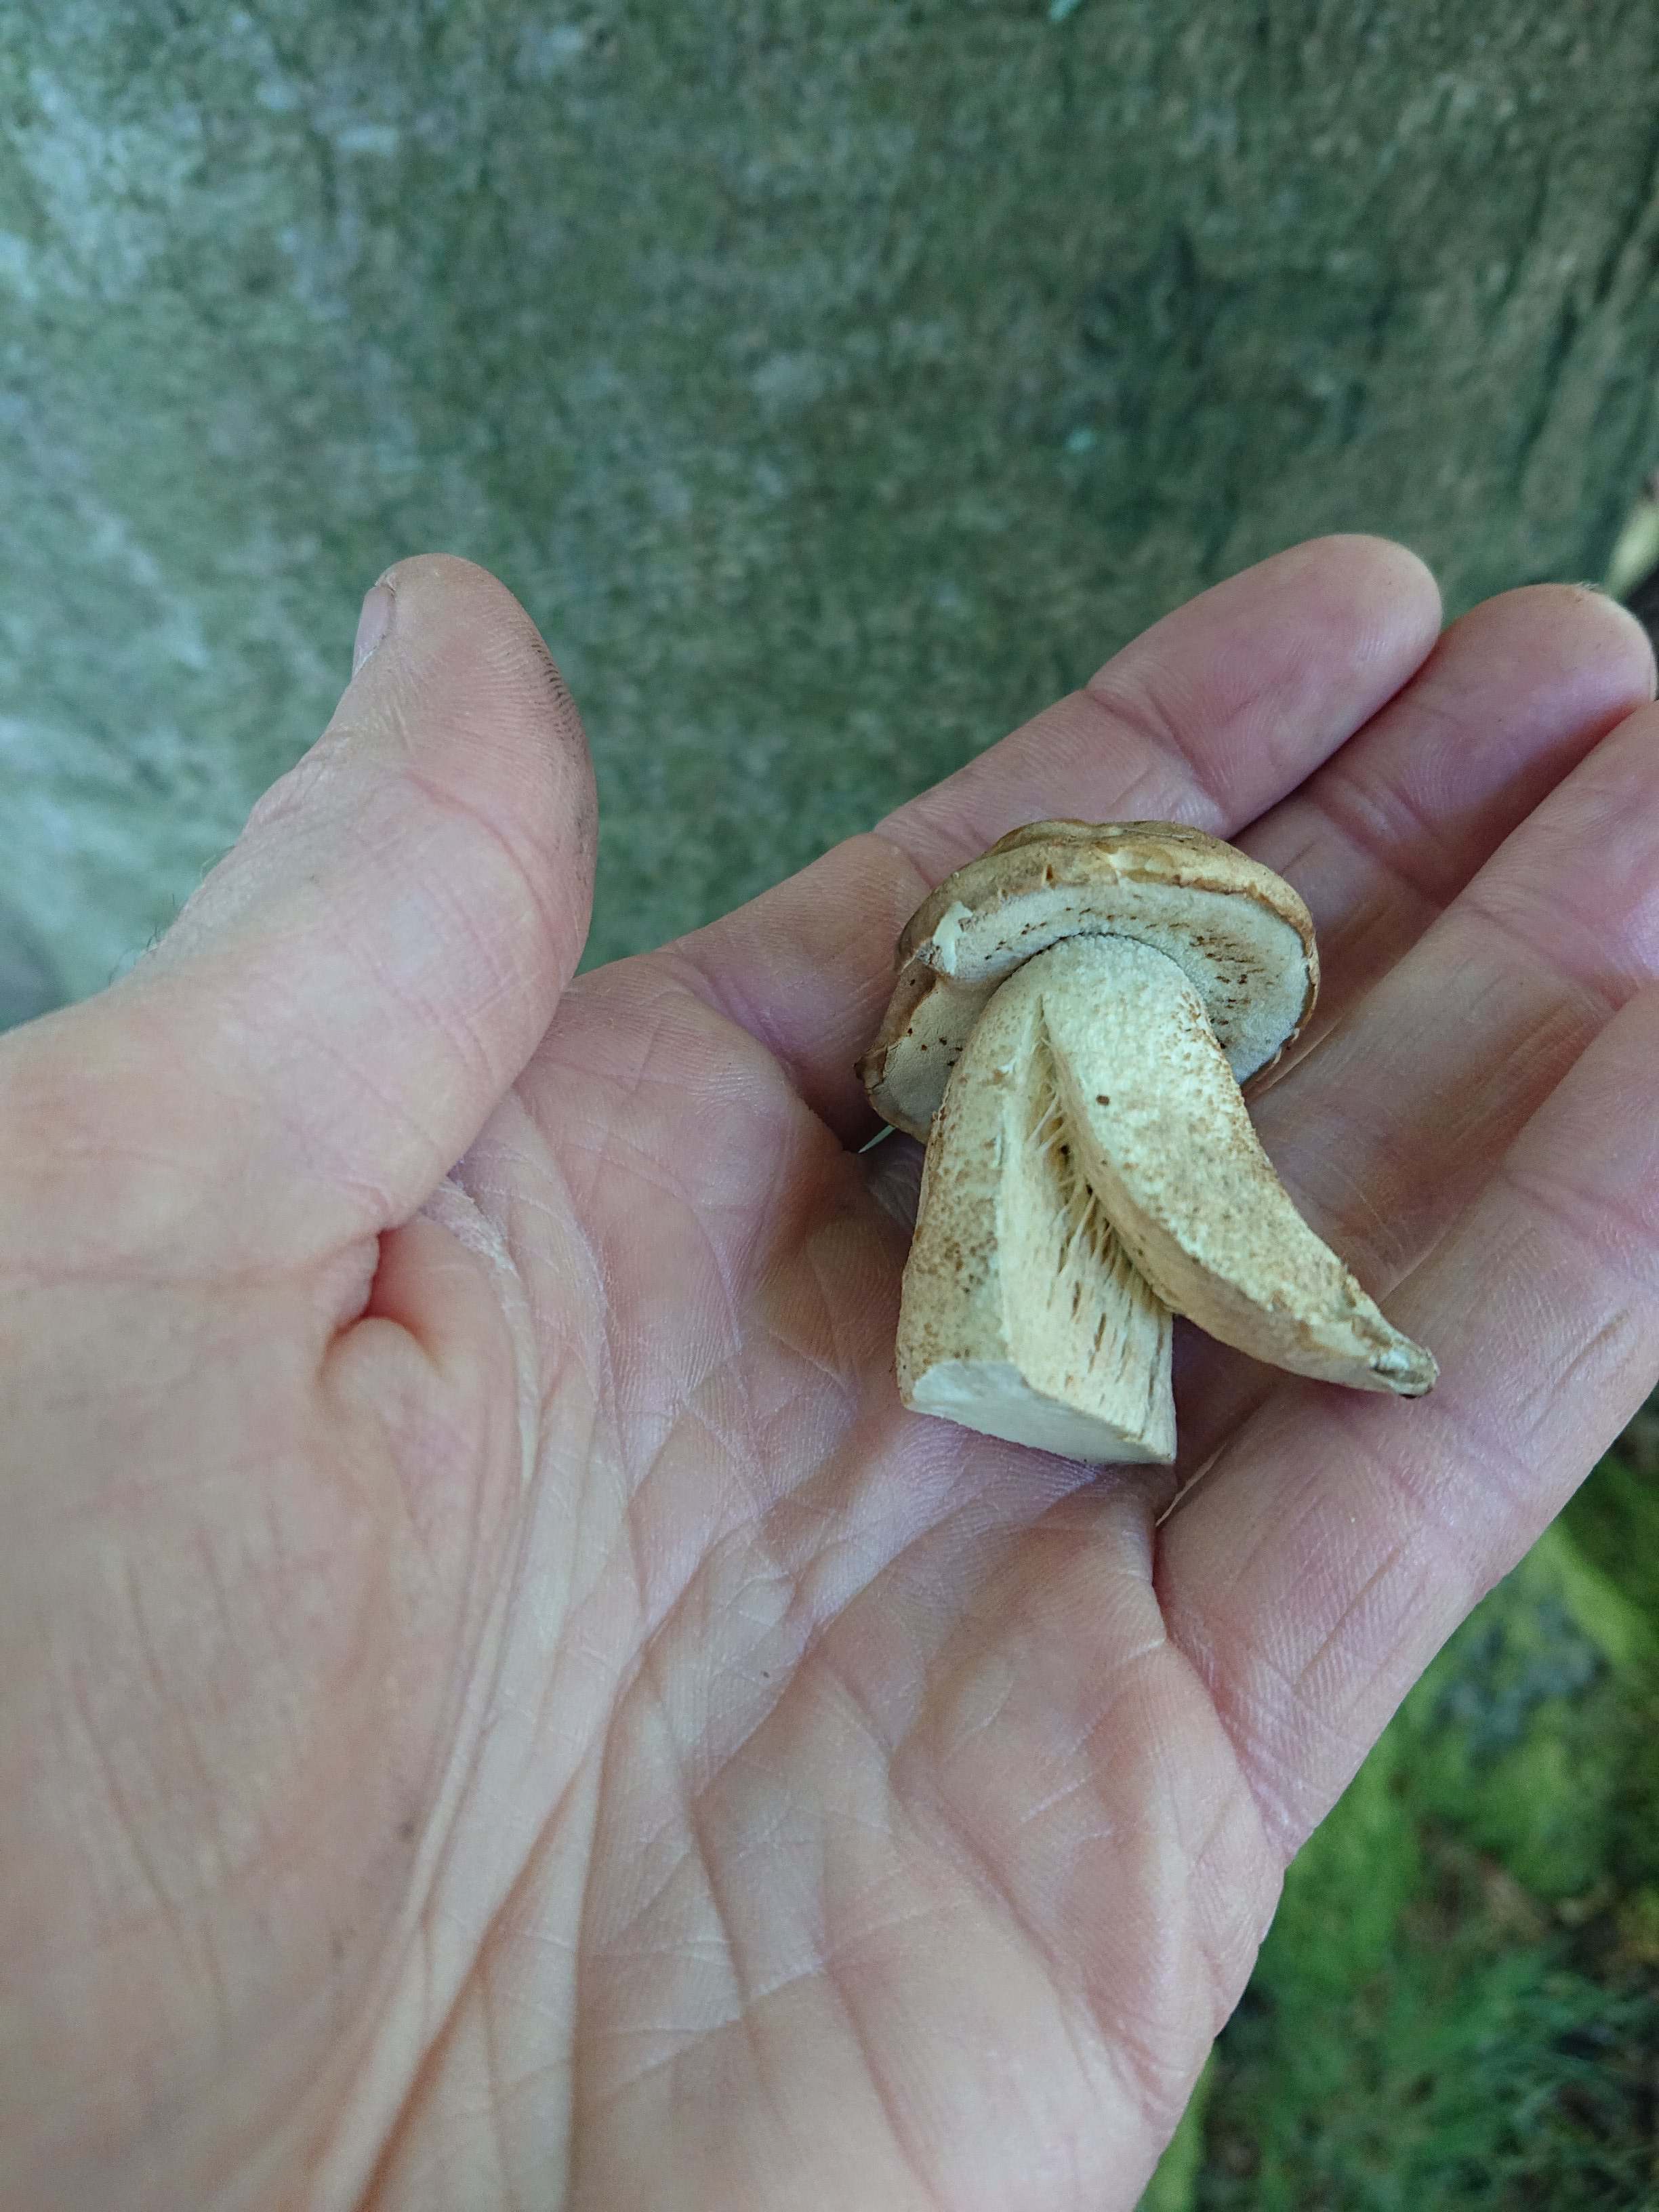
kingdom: Fungi
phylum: Basidiomycota
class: Agaricomycetes
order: Boletales
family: Boletaceae
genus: Boletus
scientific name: Boletus reticulatus
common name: sommer-rørhat
